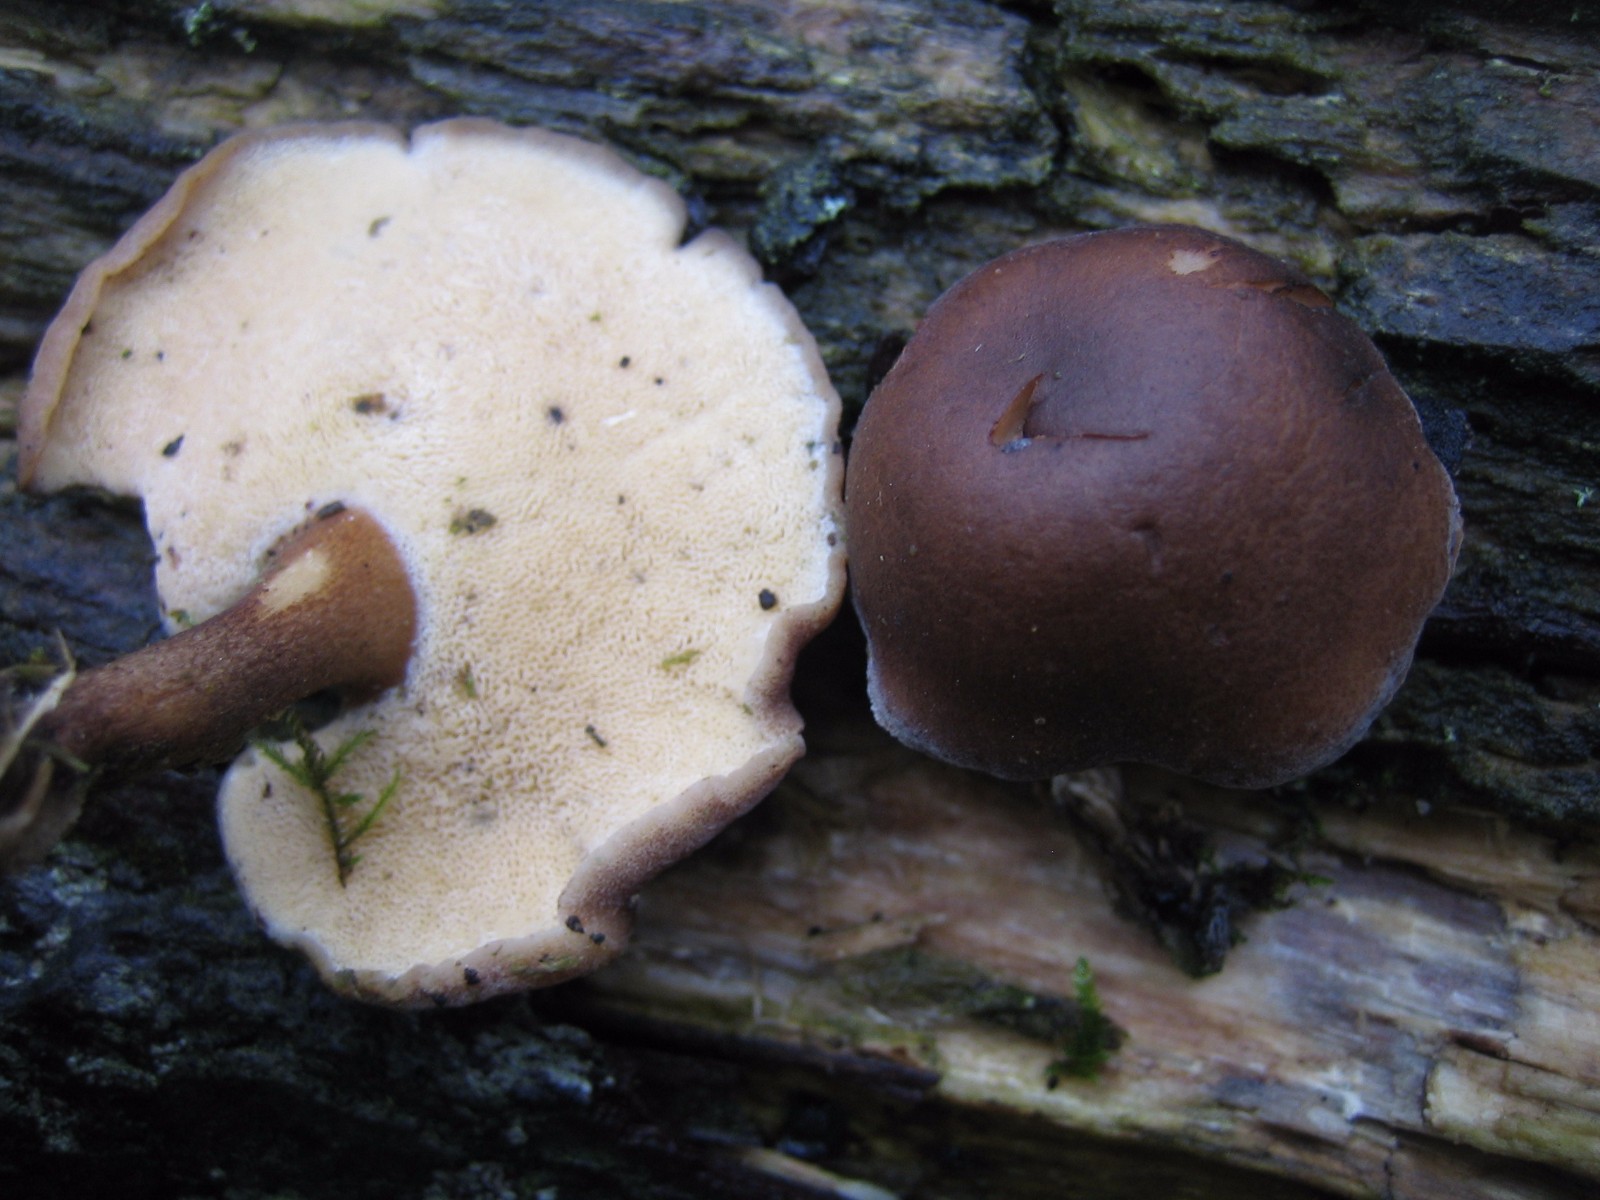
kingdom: Fungi
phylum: Basidiomycota
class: Agaricomycetes
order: Polyporales
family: Polyporaceae
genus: Lentinus
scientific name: Lentinus brumalis
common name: vinter-stilkporesvamp
